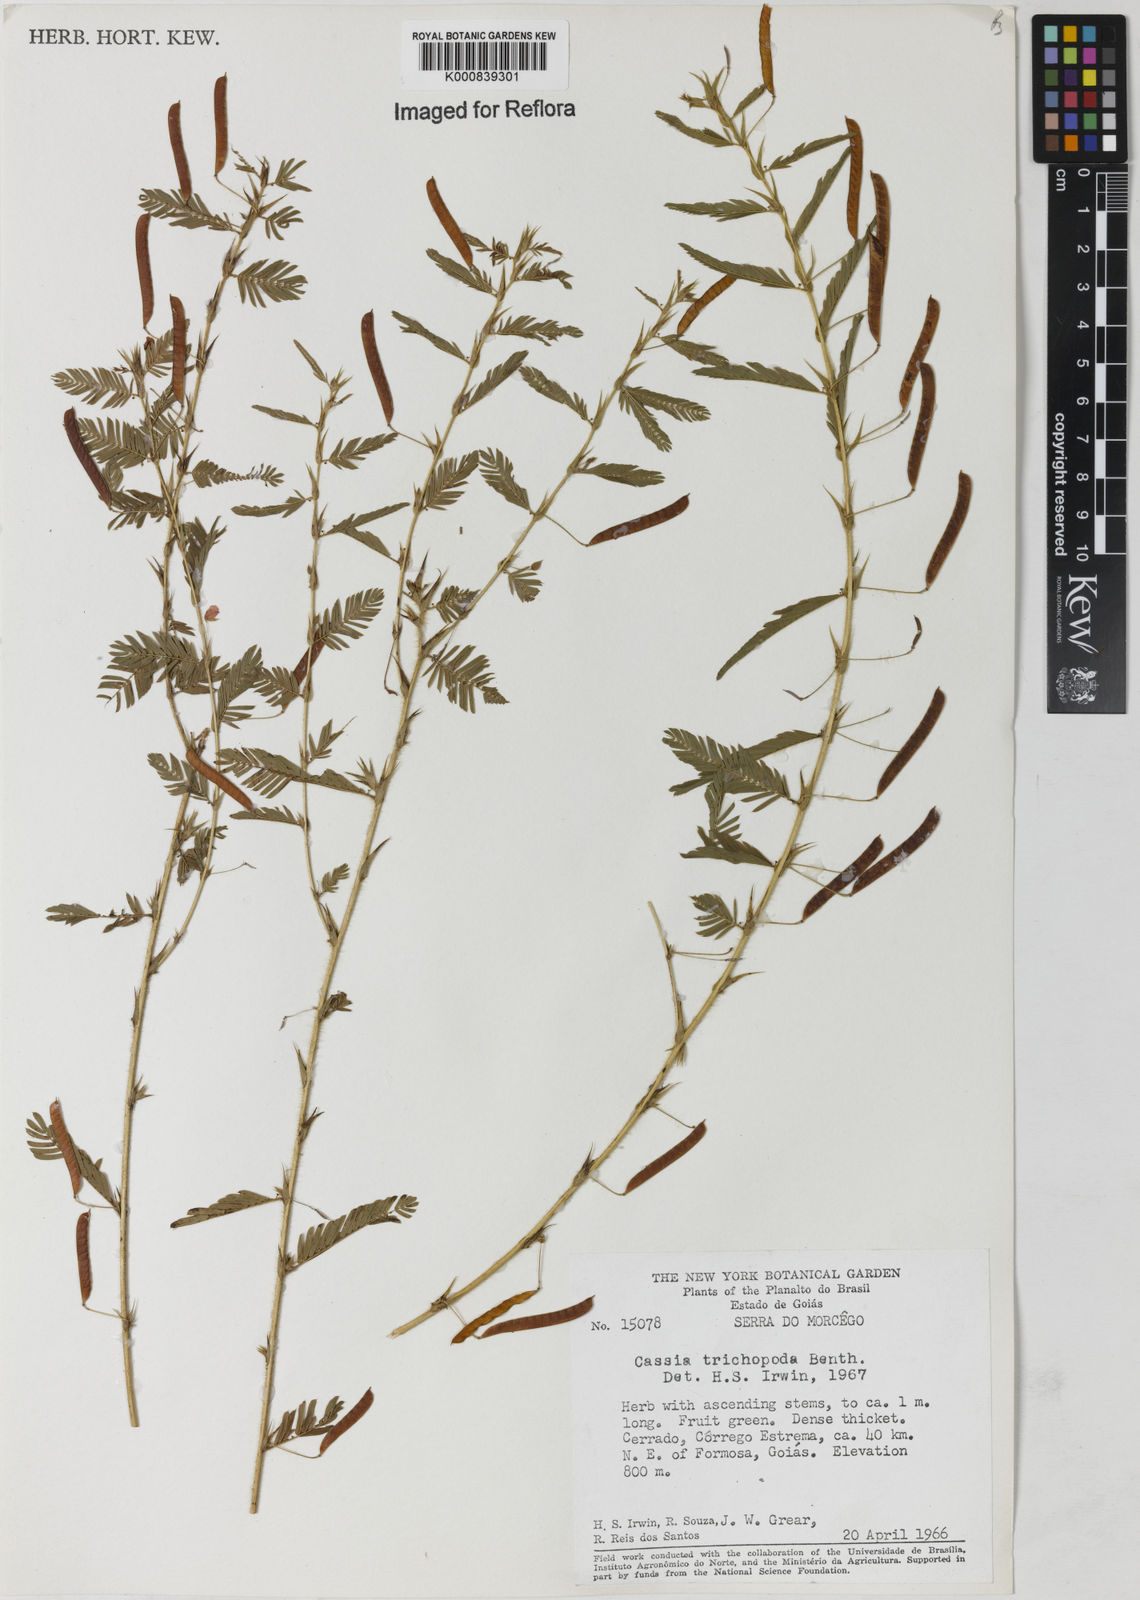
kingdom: Plantae
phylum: Tracheophyta
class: Magnoliopsida
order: Fabales
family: Fabaceae
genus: Chamaecrista
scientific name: Chamaecrista trichopoda
